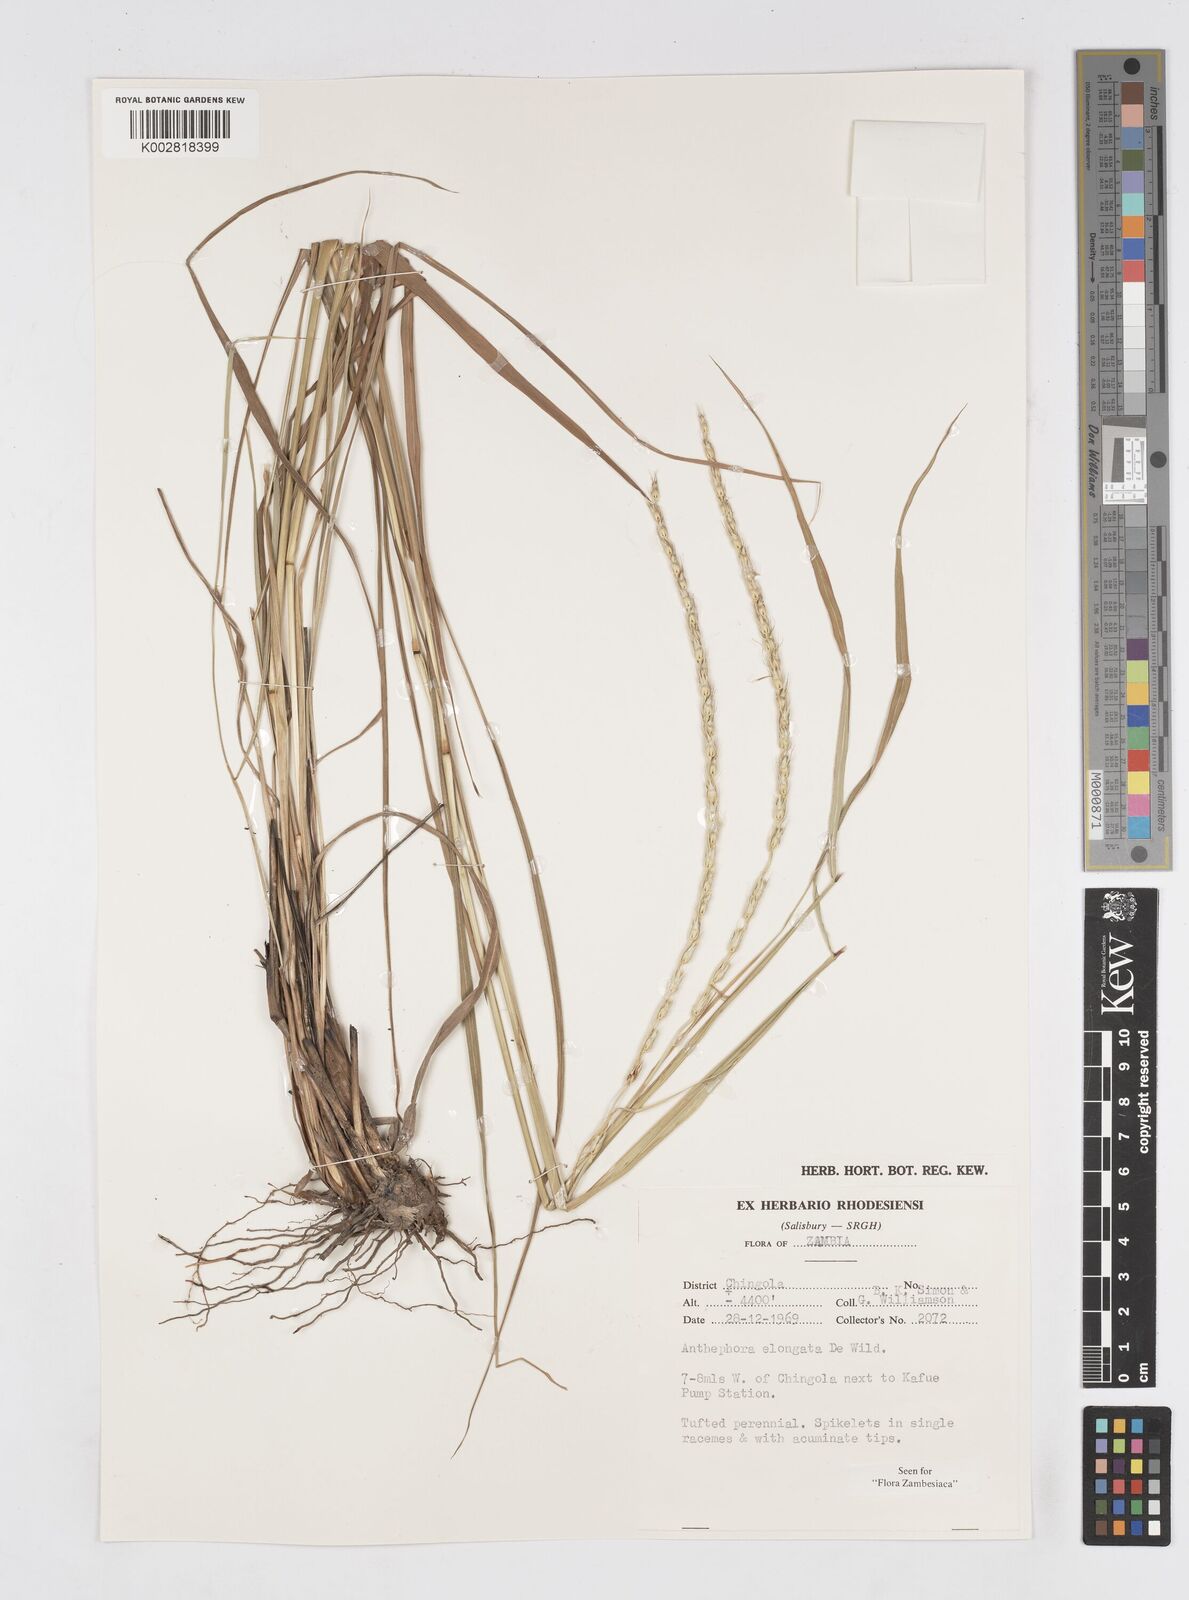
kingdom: Plantae
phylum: Tracheophyta
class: Liliopsida
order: Poales
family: Poaceae
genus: Anthephora
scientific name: Anthephora elongata
